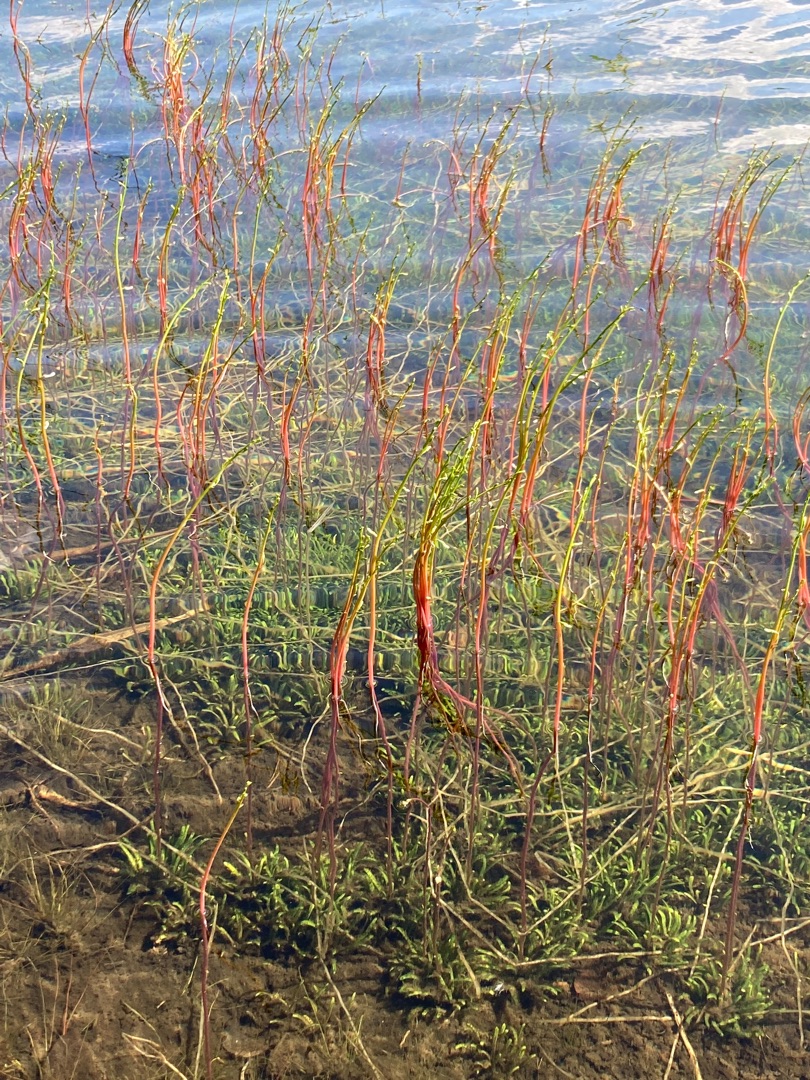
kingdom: Plantae
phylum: Tracheophyta
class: Magnoliopsida
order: Asterales
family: Campanulaceae
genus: Lobelia
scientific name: Lobelia dortmanna
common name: Tvepibet lobelie
